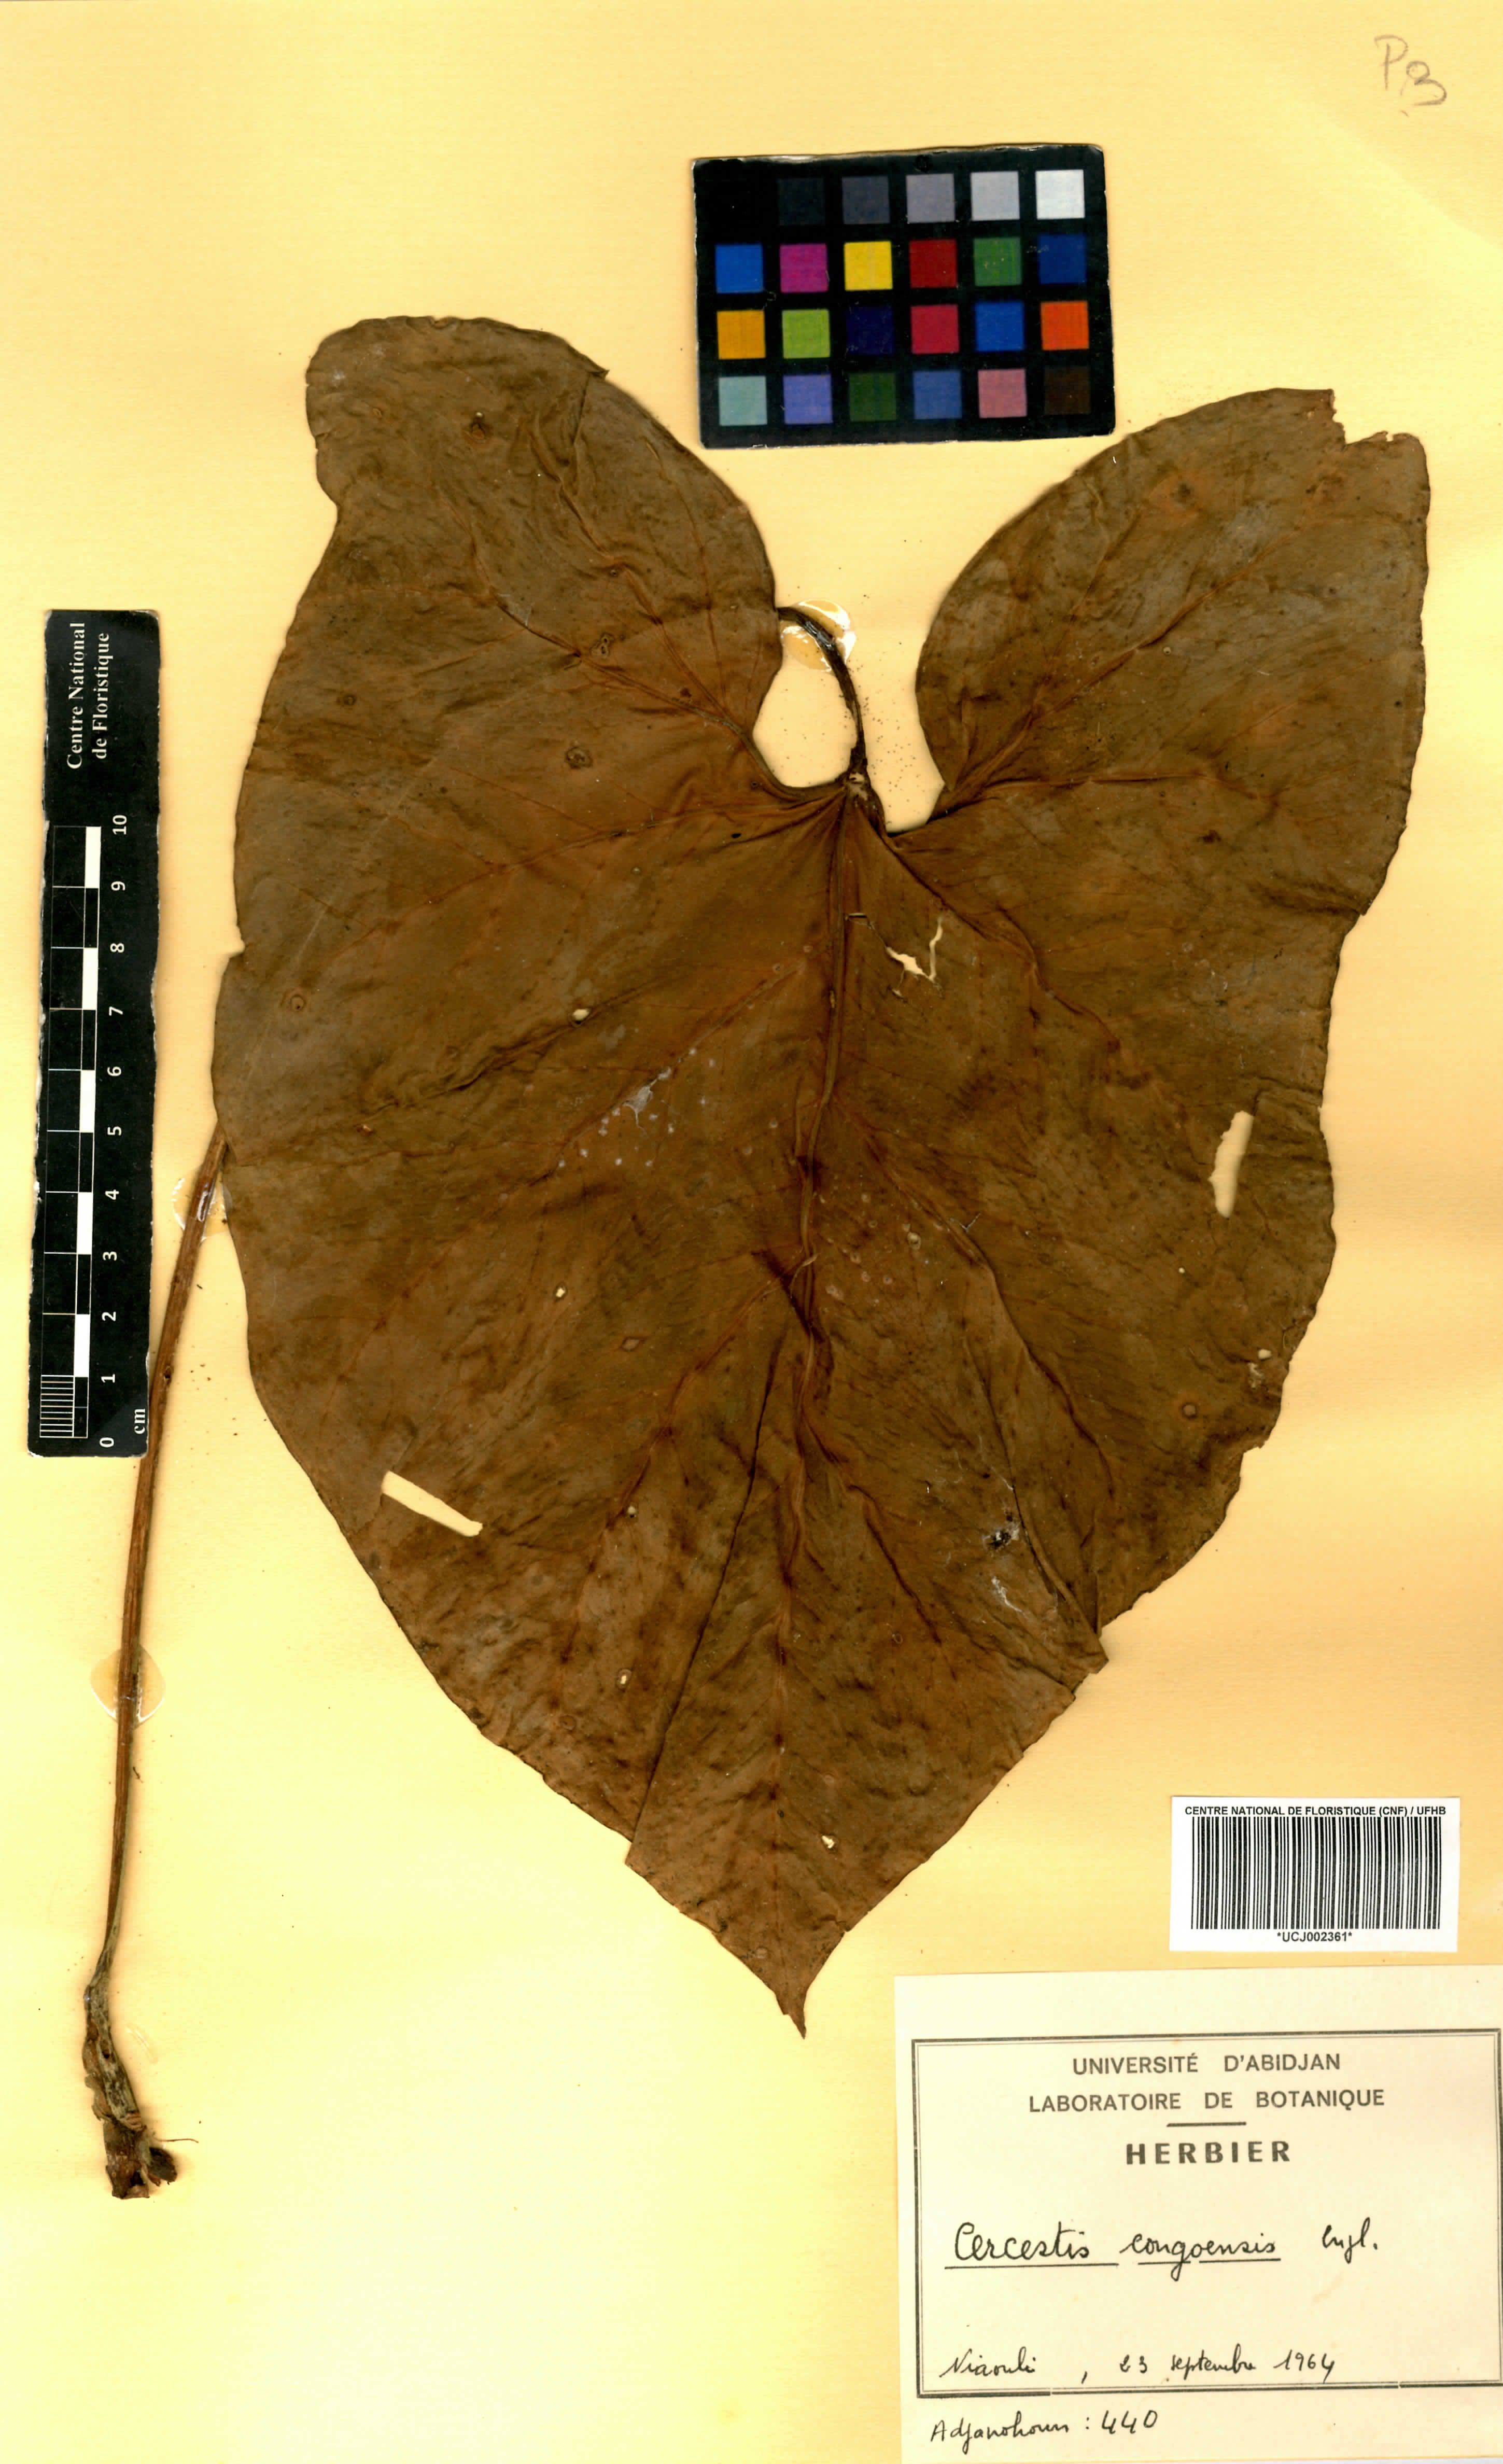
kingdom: Plantae
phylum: Tracheophyta
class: Liliopsida
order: Alismatales
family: Araceae
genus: Cercestis
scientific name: Cercestis congoensis
